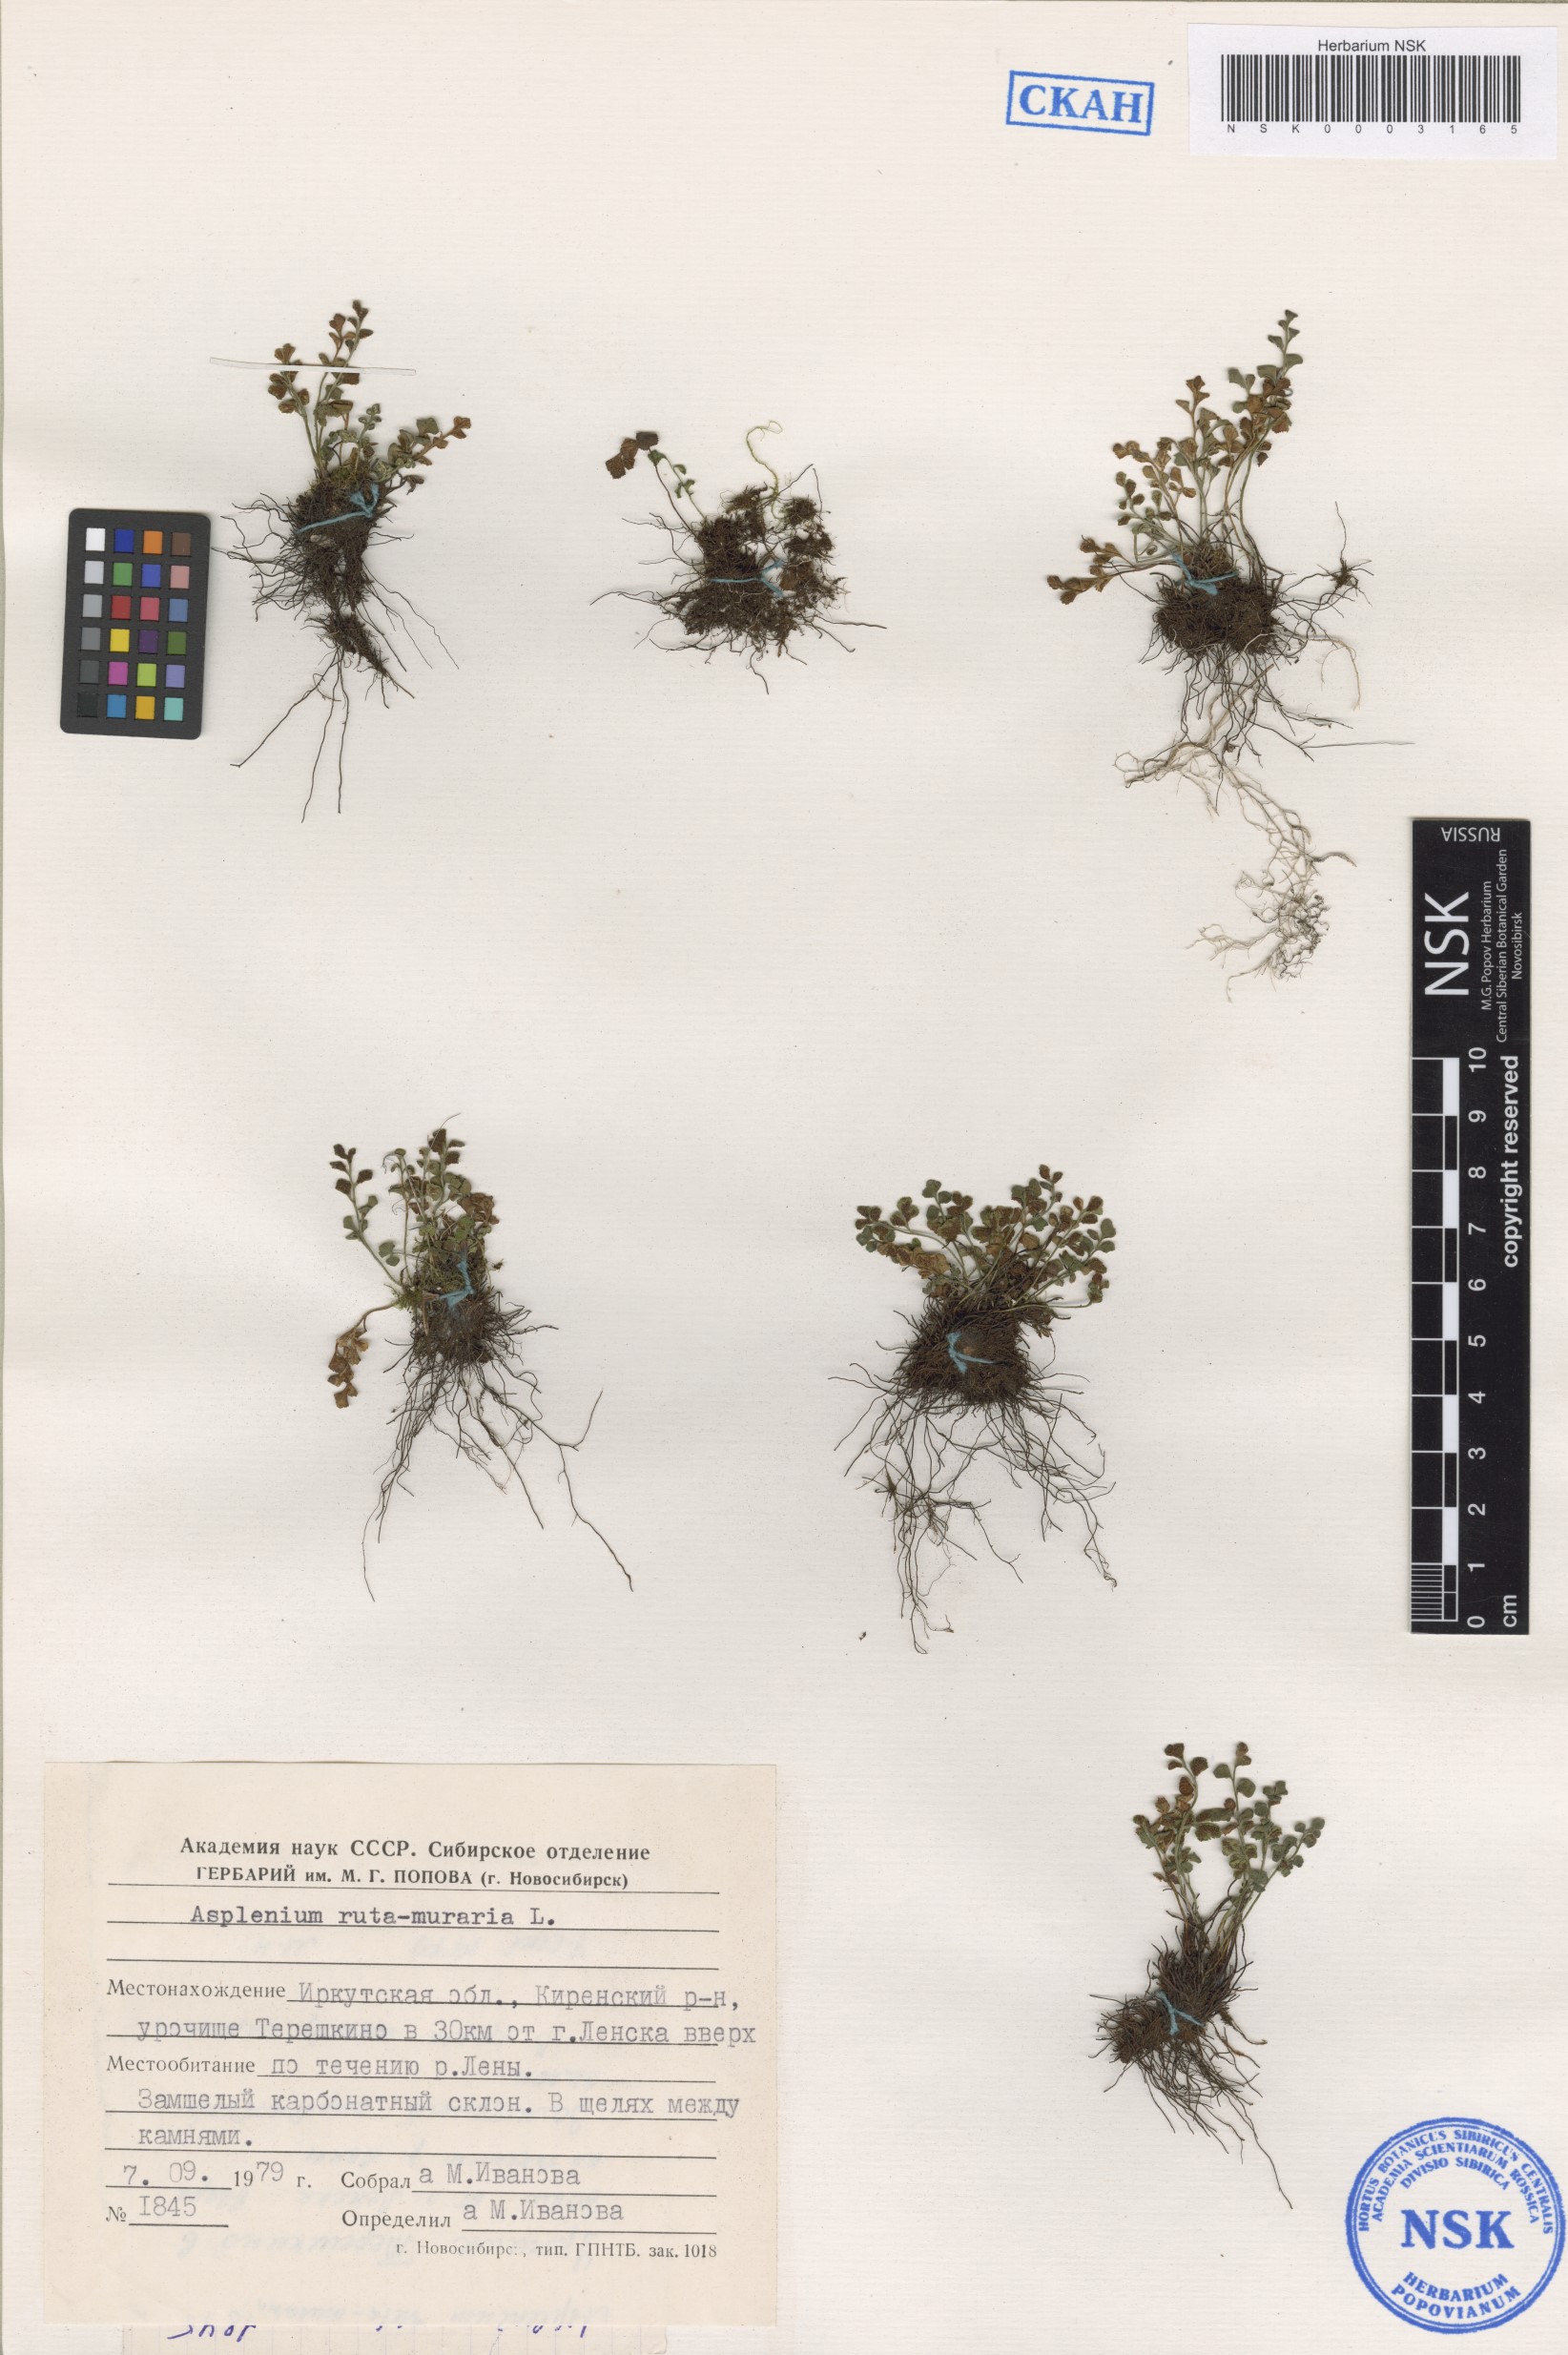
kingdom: Plantae
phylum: Tracheophyta
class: Polypodiopsida
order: Polypodiales
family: Aspleniaceae
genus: Asplenium
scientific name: Asplenium ruta-muraria
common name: Wall-rue
